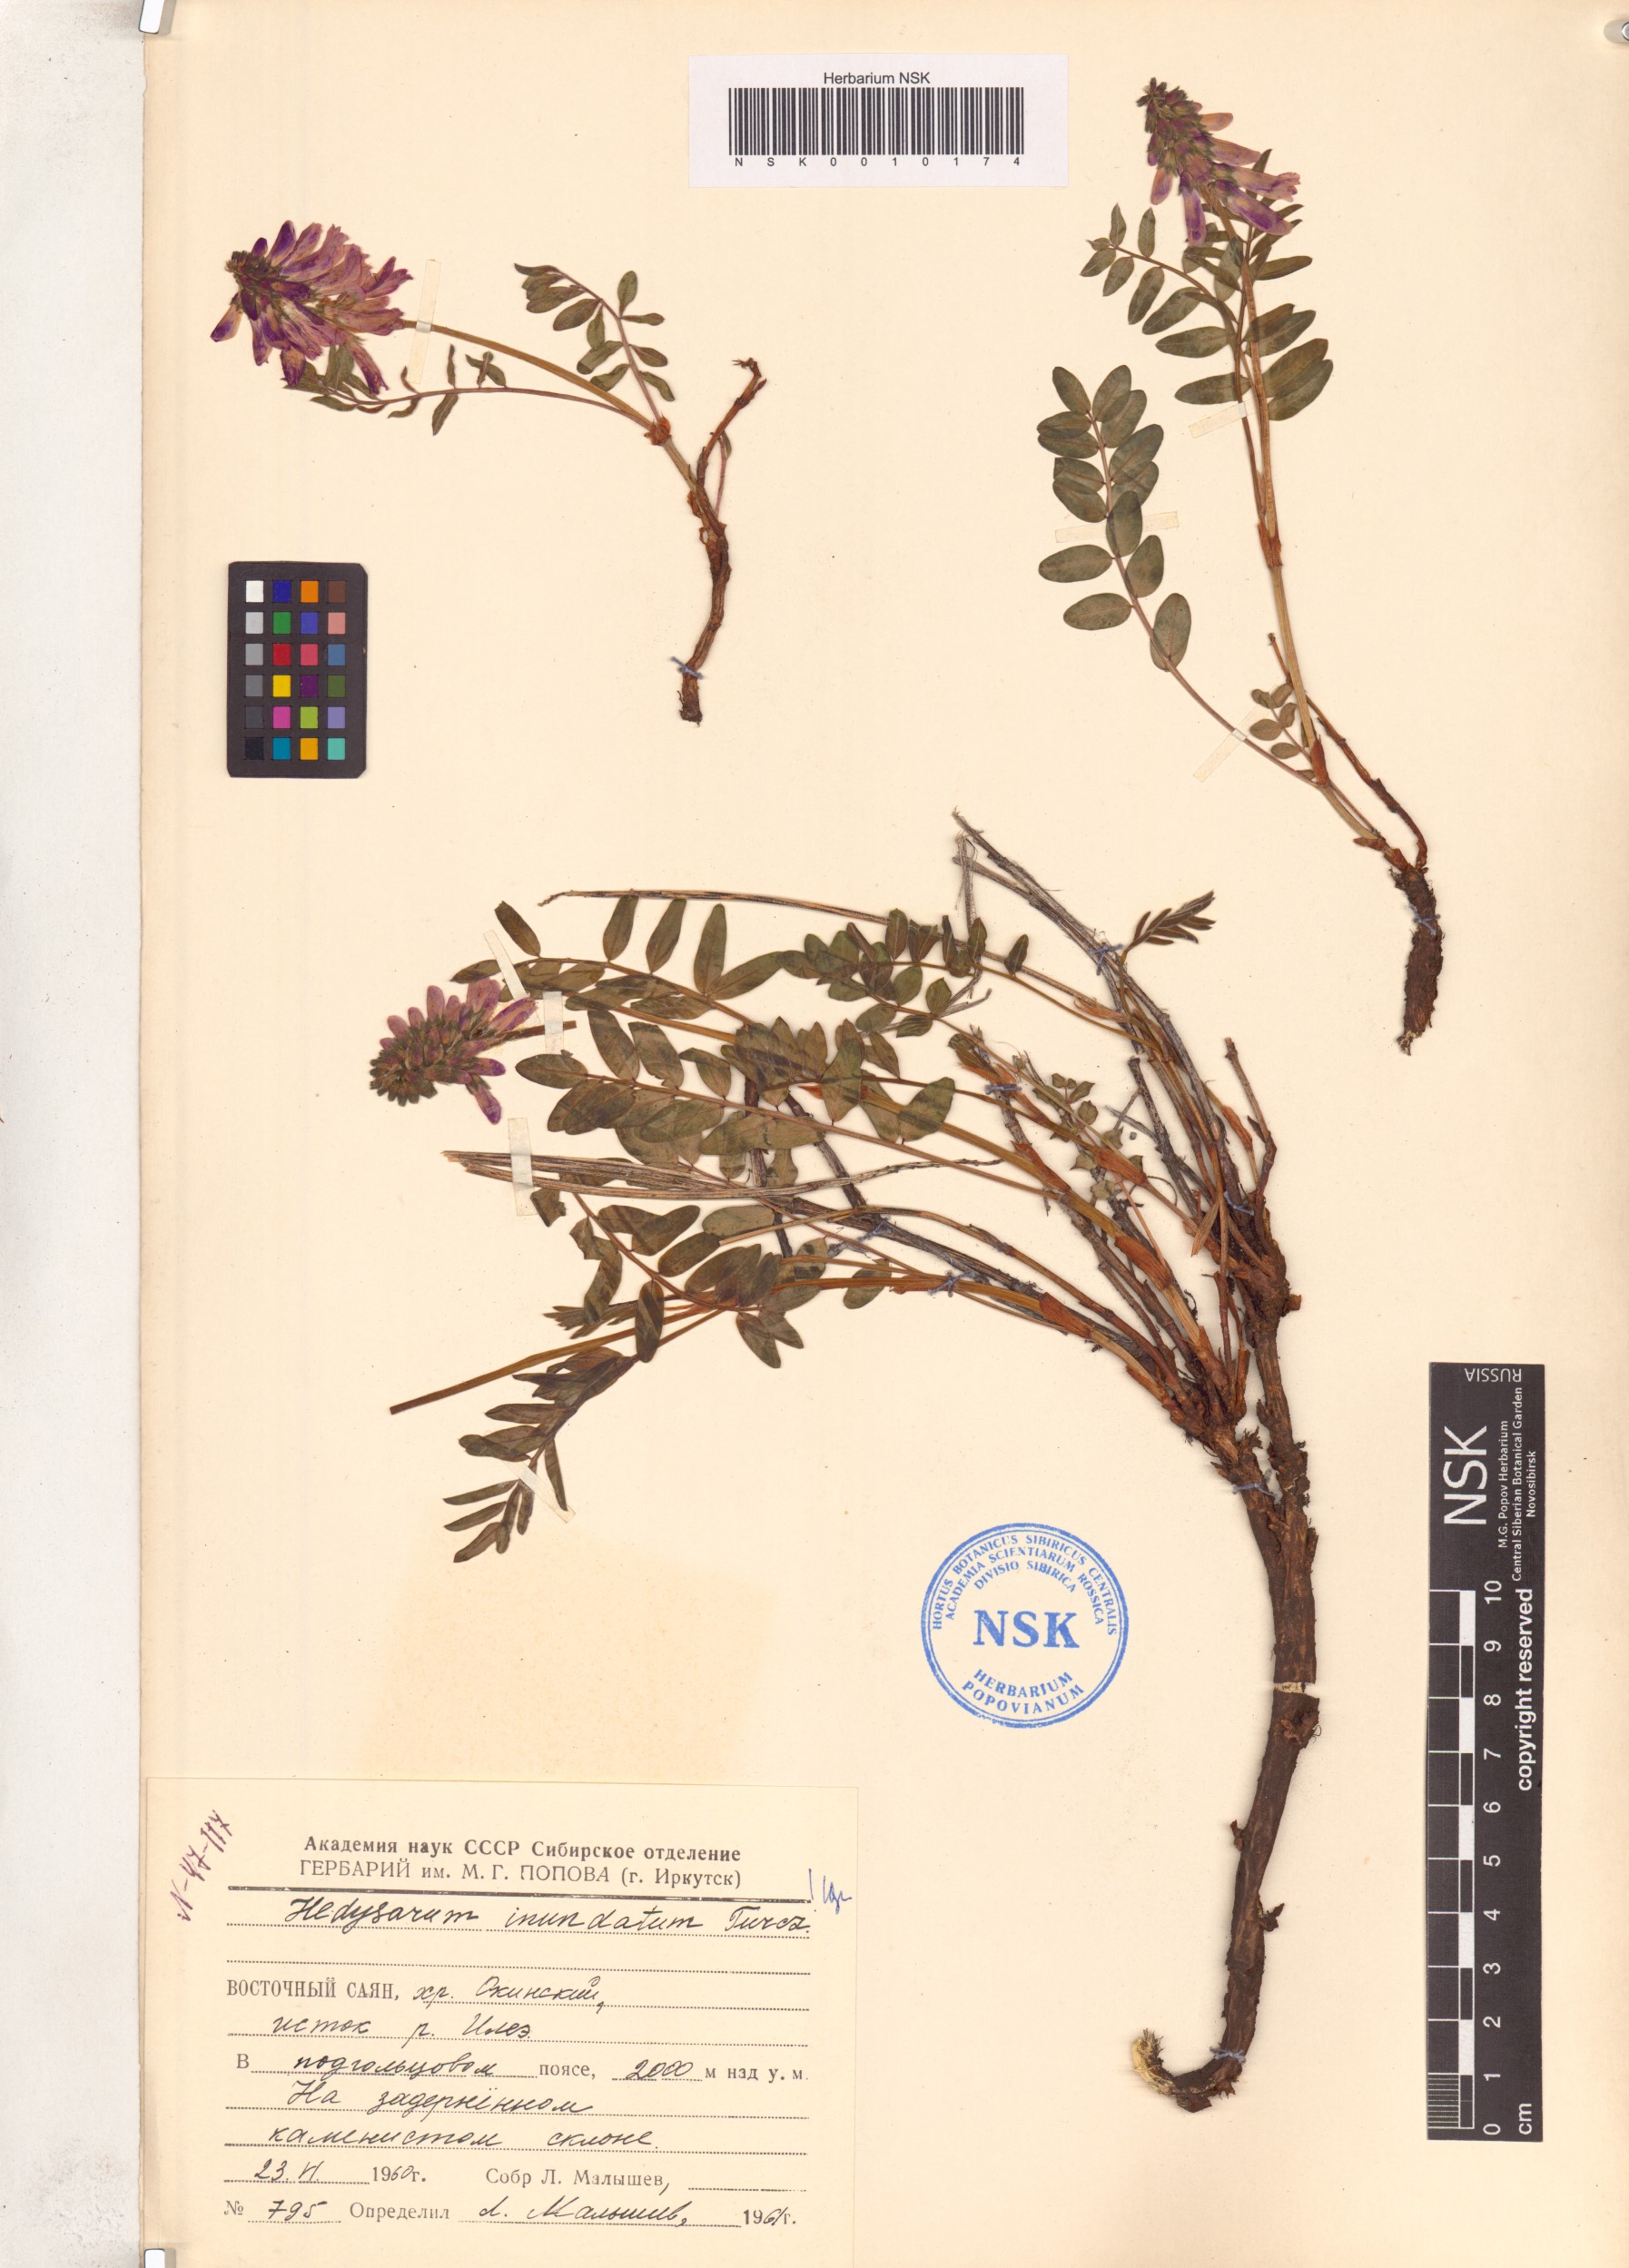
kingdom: Plantae
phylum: Tracheophyta
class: Magnoliopsida
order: Fabales
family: Fabaceae
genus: Hedysarum
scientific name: Hedysarum inundatum
